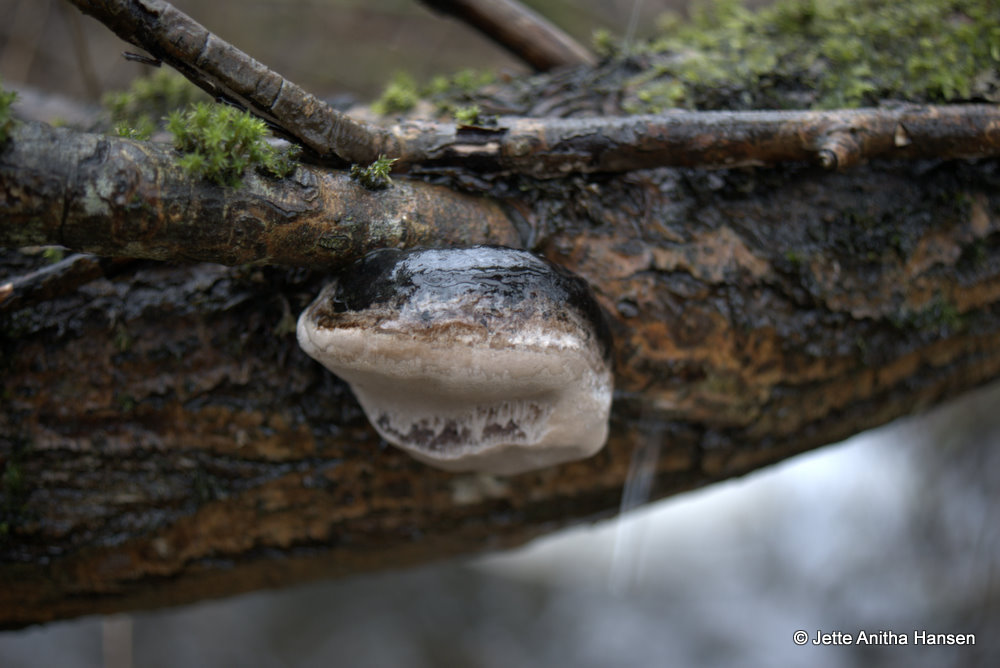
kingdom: Fungi
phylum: Basidiomycota
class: Agaricomycetes
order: Hymenochaetales
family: Hymenochaetaceae
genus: Phellinus
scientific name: Phellinus igniarius
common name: almindelig ildporesvamp
